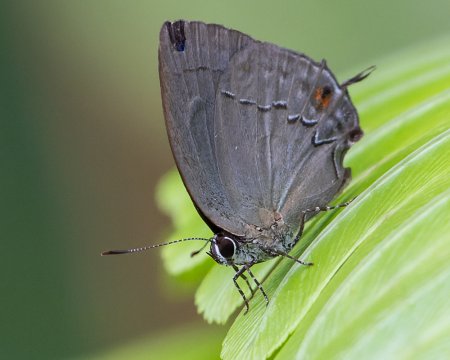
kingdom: Animalia
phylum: Arthropoda
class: Insecta
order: Lepidoptera
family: Lycaenidae
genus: Ziegleria
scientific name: Ziegleria hesperitis
